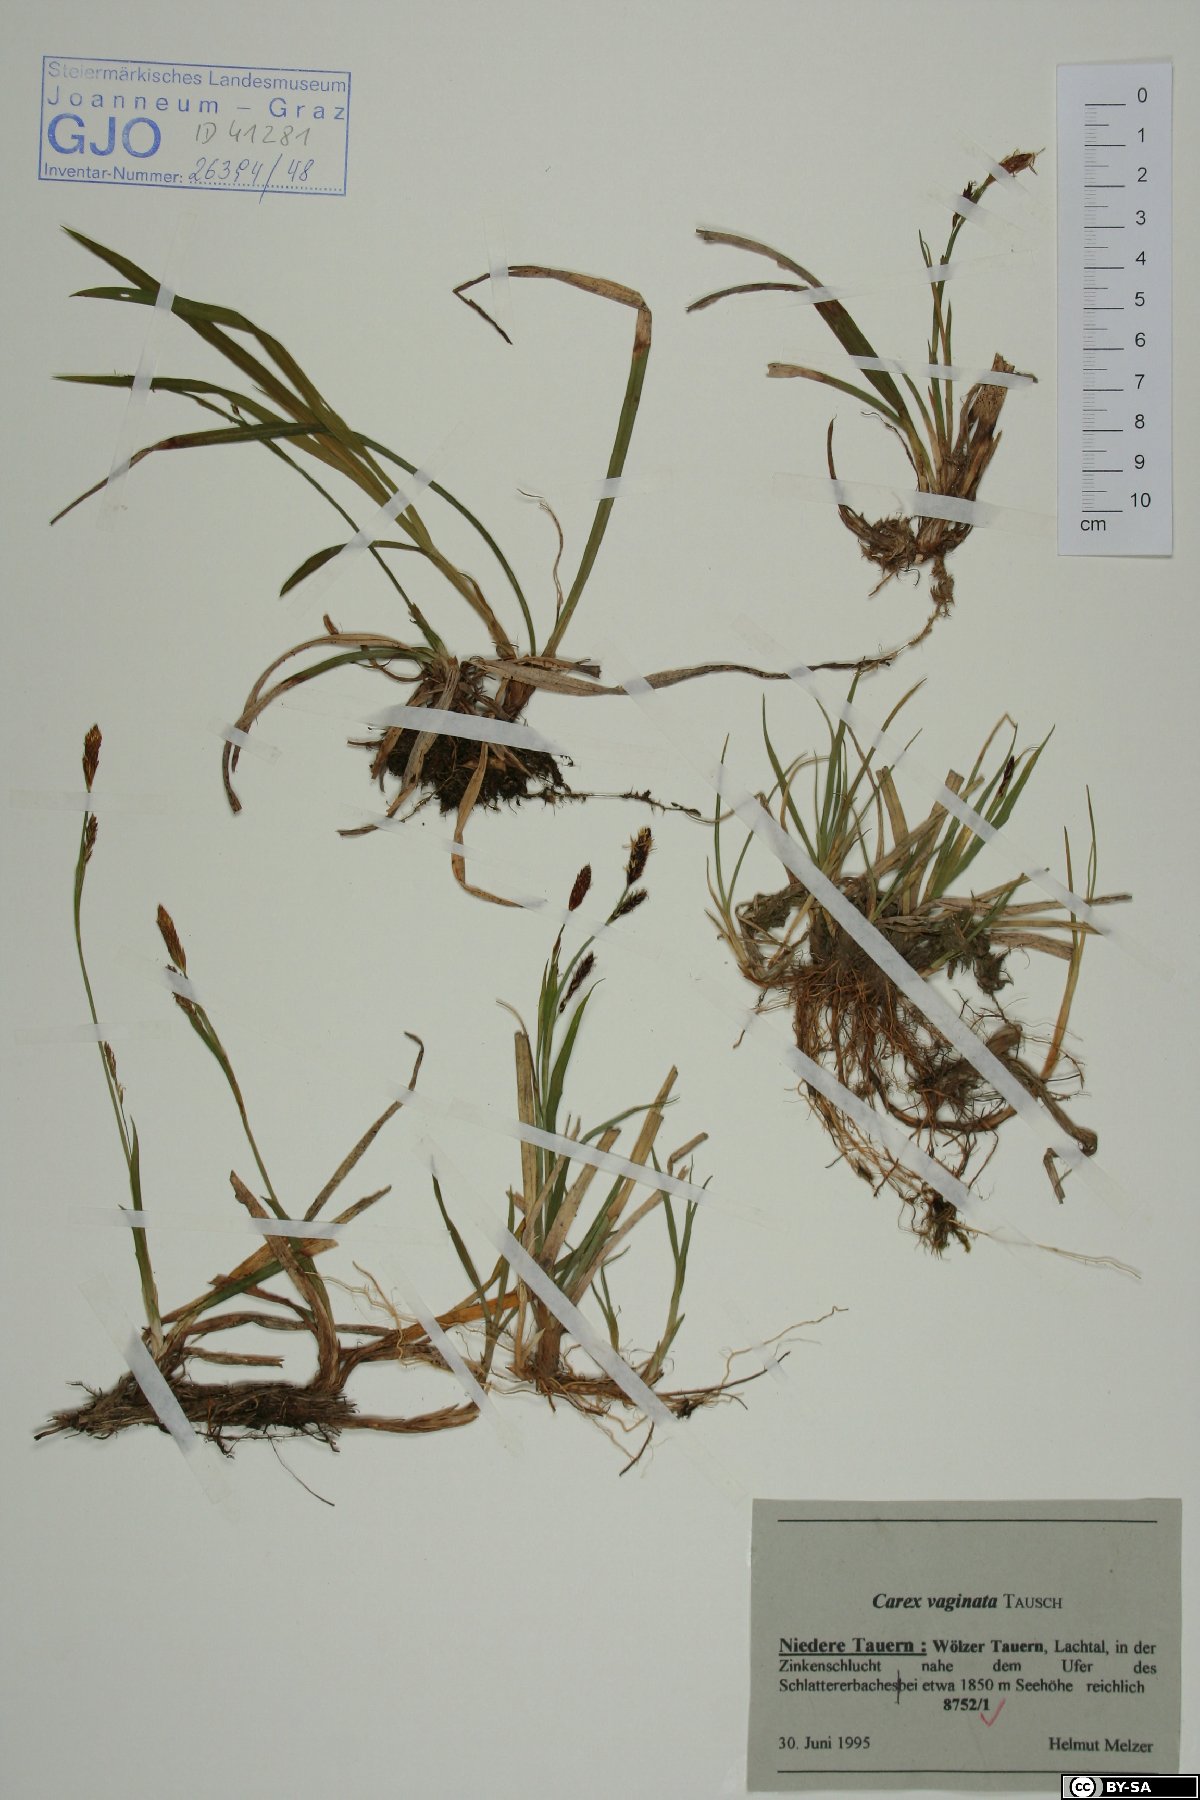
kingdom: Plantae
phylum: Tracheophyta
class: Liliopsida
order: Poales
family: Cyperaceae
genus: Carex
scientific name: Carex vaginata
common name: Sheathed sedge
